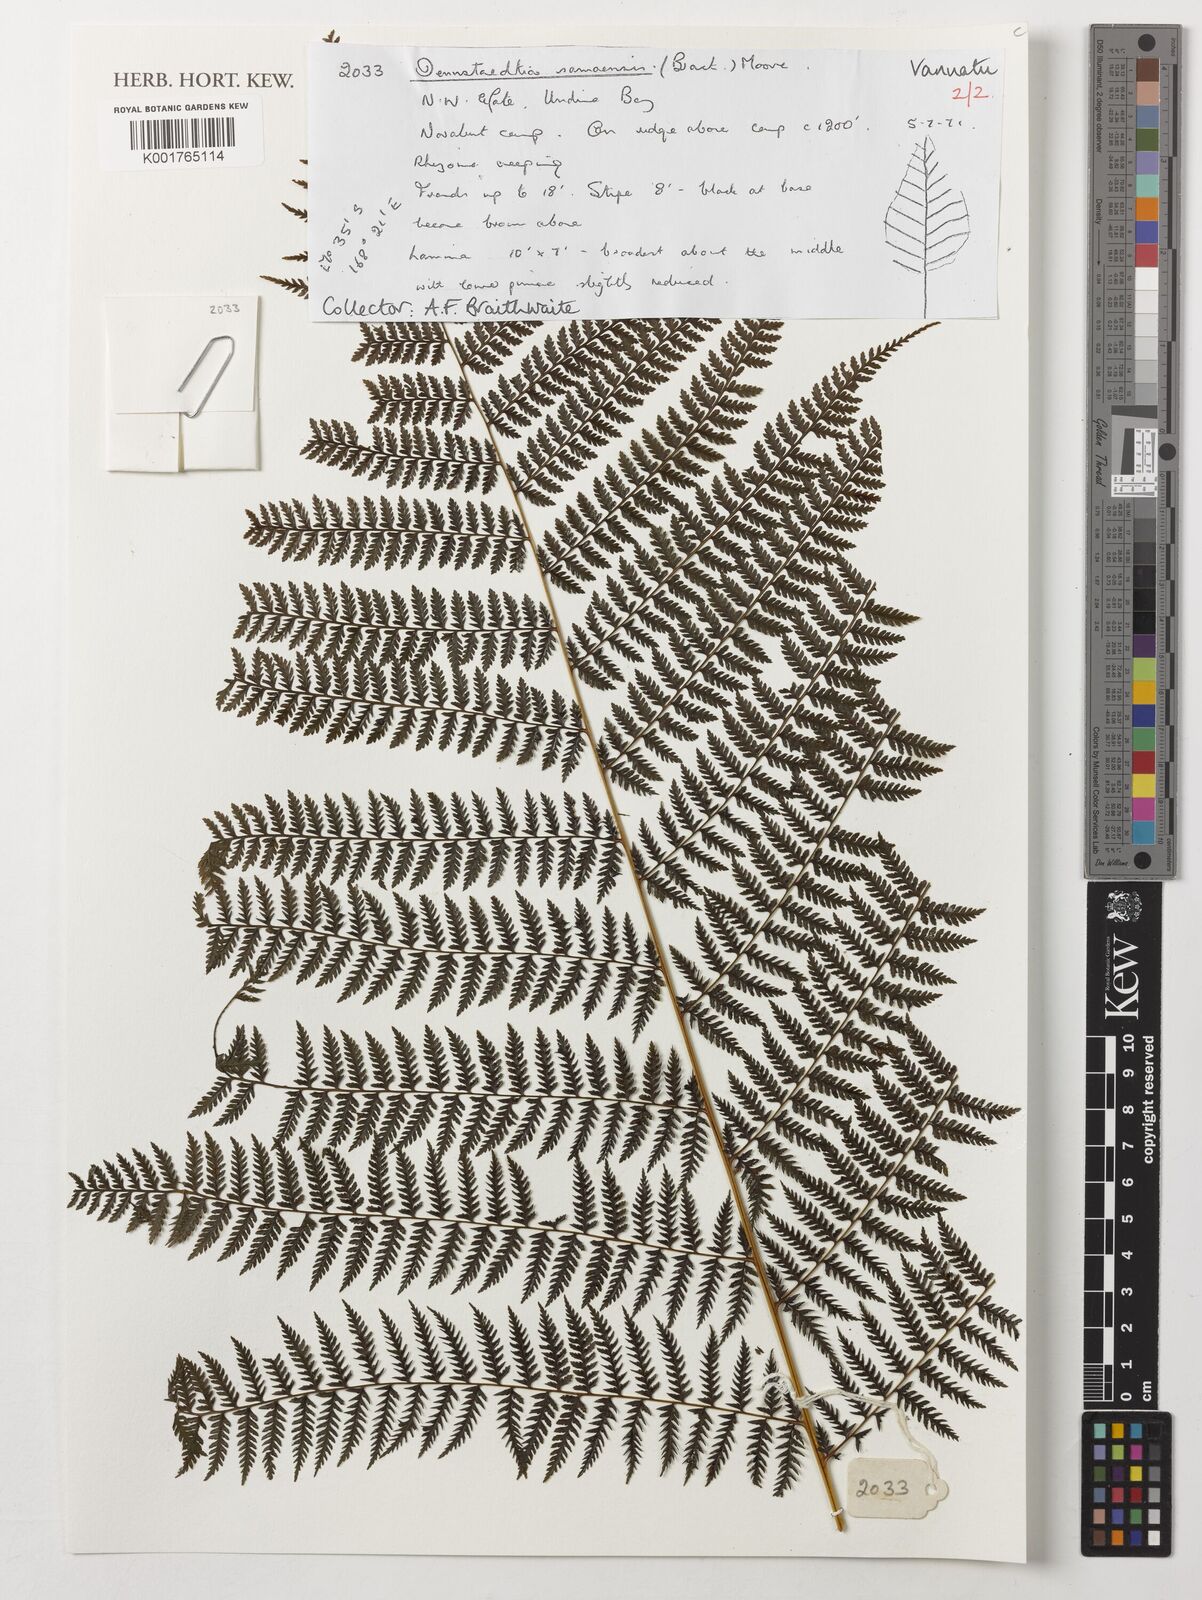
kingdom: Plantae
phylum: Tracheophyta
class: Polypodiopsida
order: Polypodiales
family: Dennstaedtiaceae
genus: Dennstaedtia
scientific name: Dennstaedtia samoensis
